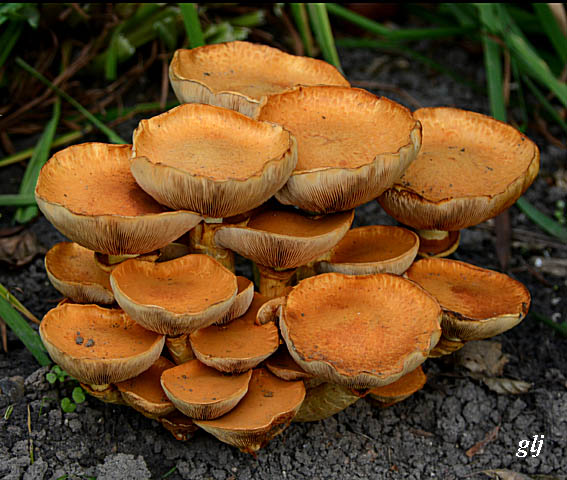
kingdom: Fungi
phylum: Basidiomycota
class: Agaricomycetes
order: Agaricales
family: Hymenogastraceae
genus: Gymnopilus
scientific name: Gymnopilus spectabilis
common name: fibret flammehat
